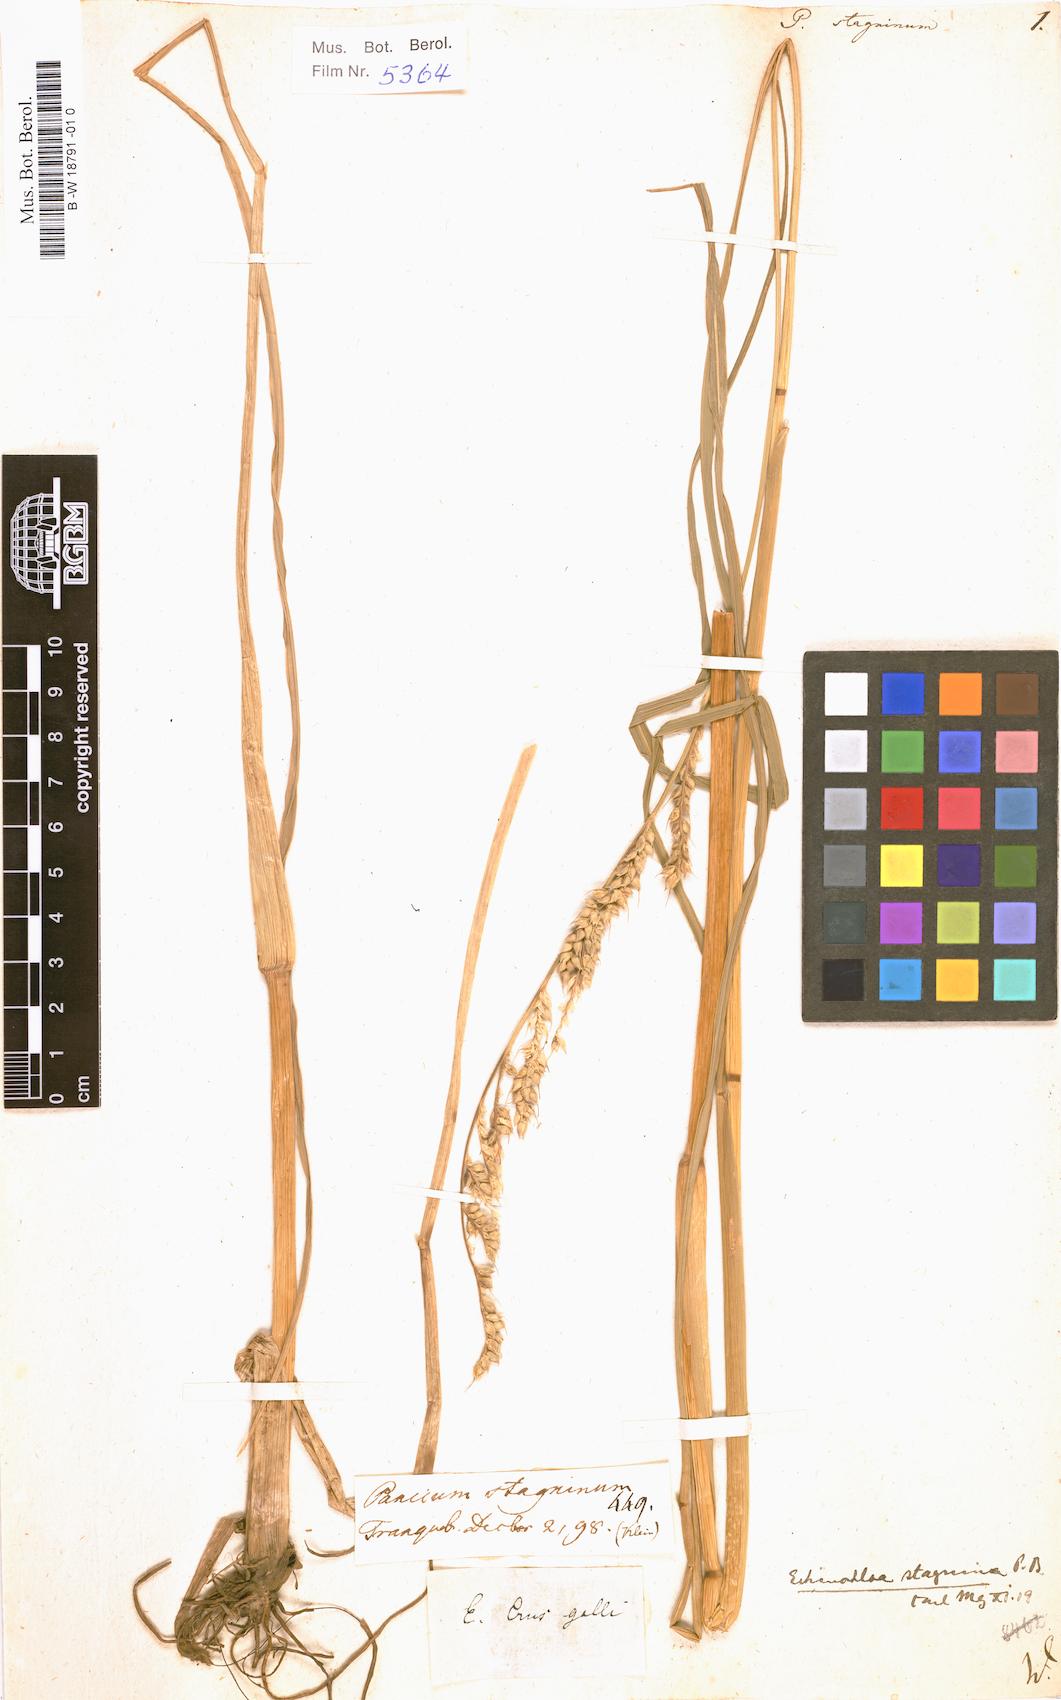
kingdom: Plantae
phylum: Tracheophyta
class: Liliopsida
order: Poales
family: Poaceae
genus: Echinochloa
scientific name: Echinochloa stagnina
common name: Burgu grass
